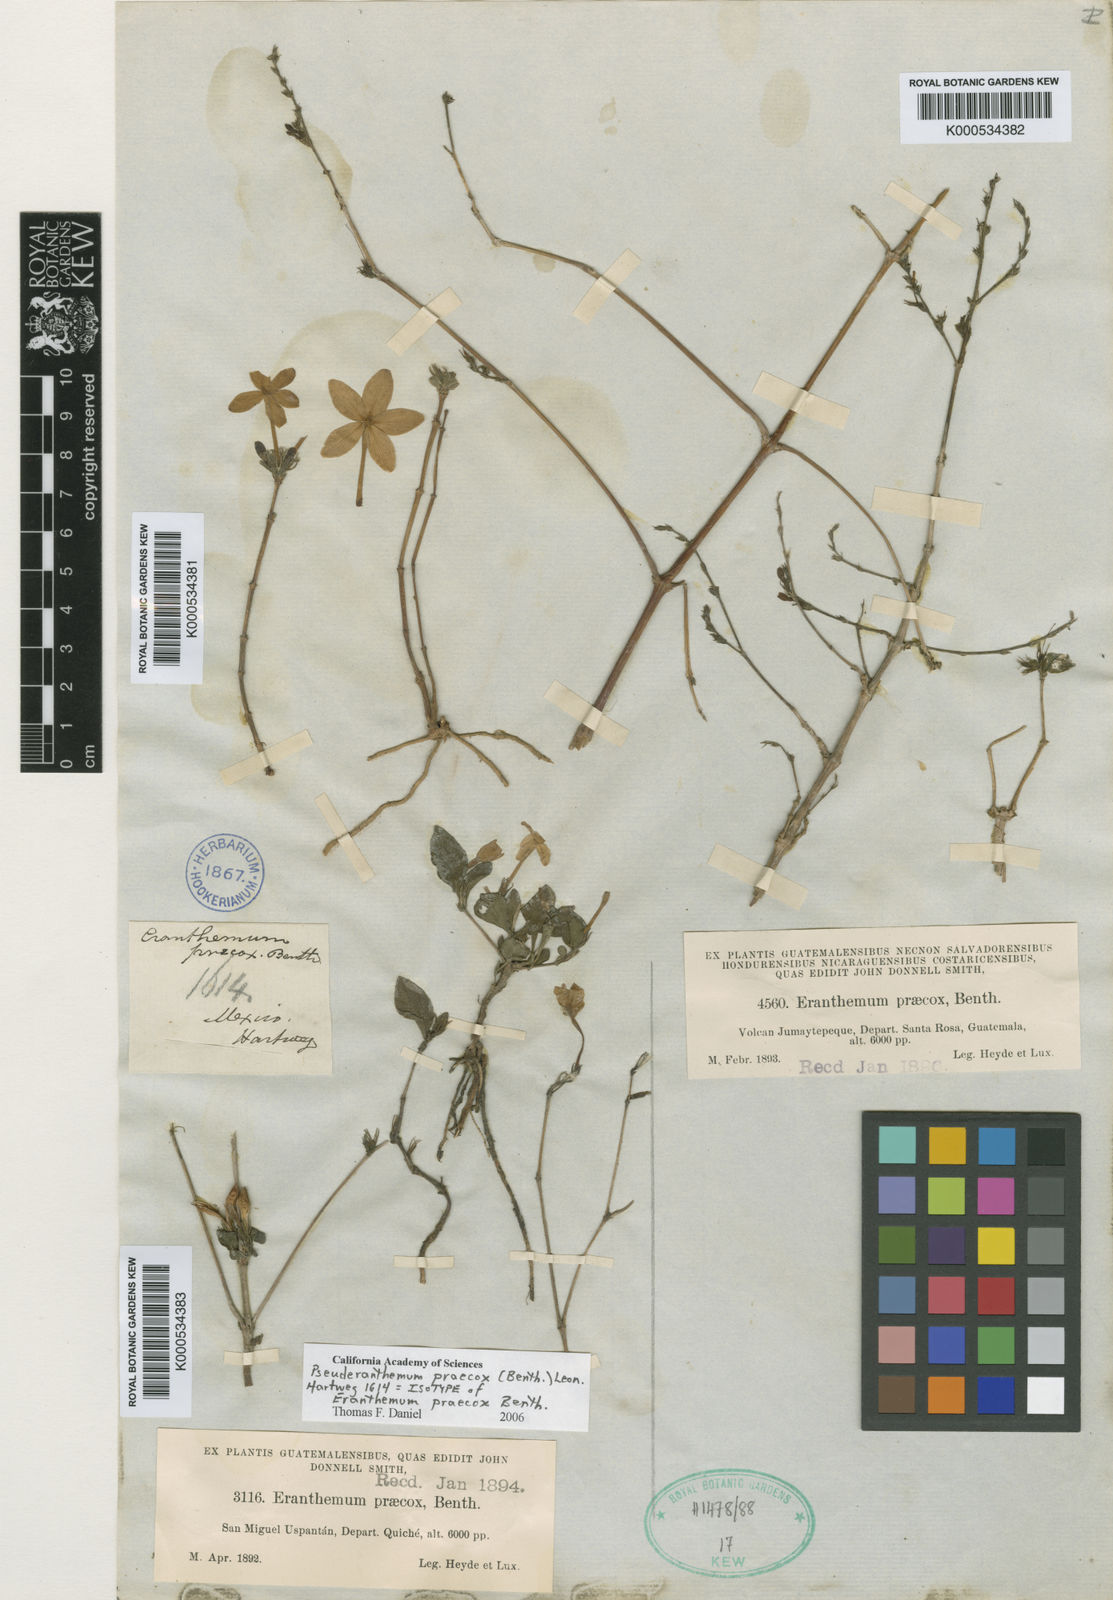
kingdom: Plantae
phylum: Tracheophyta
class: Magnoliopsida
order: Lamiales
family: Acanthaceae
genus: Pseuderanthemum
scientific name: Pseuderanthemum praecox
